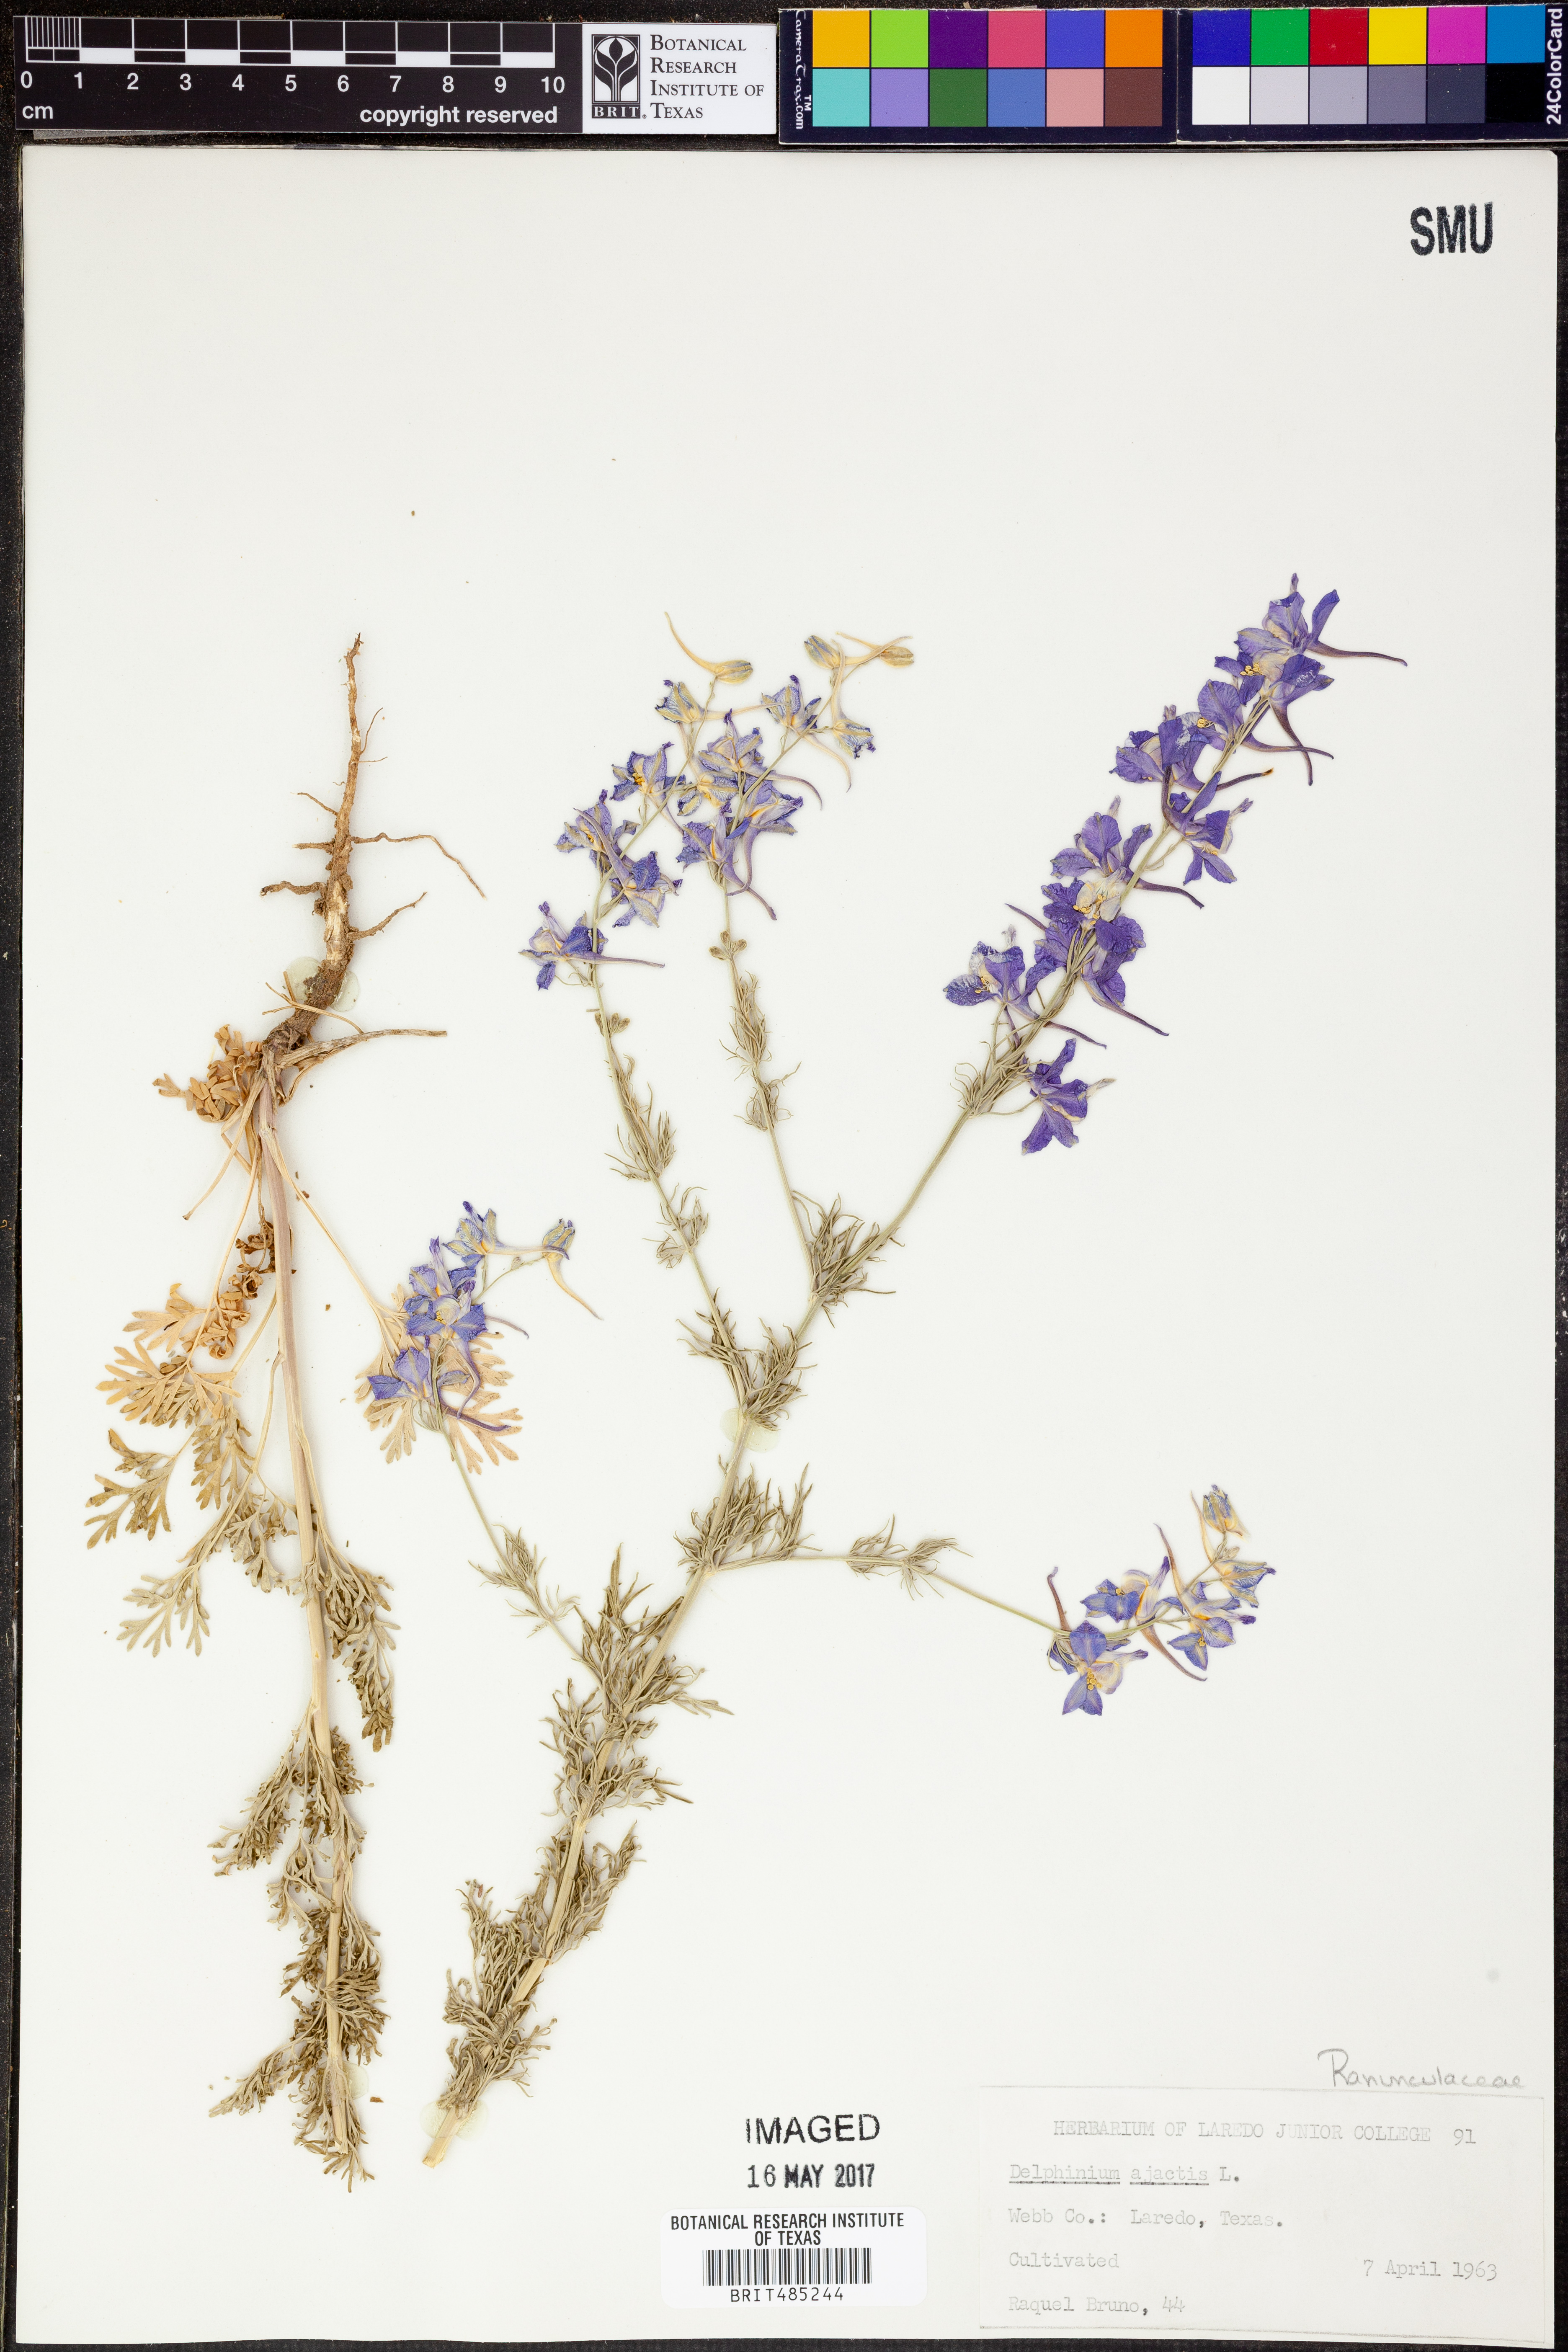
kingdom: Plantae
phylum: Tracheophyta
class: Magnoliopsida
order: Ranunculales
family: Ranunculaceae
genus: Delphinium
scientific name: Delphinium ajacis
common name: Doubtful knight's-spur
